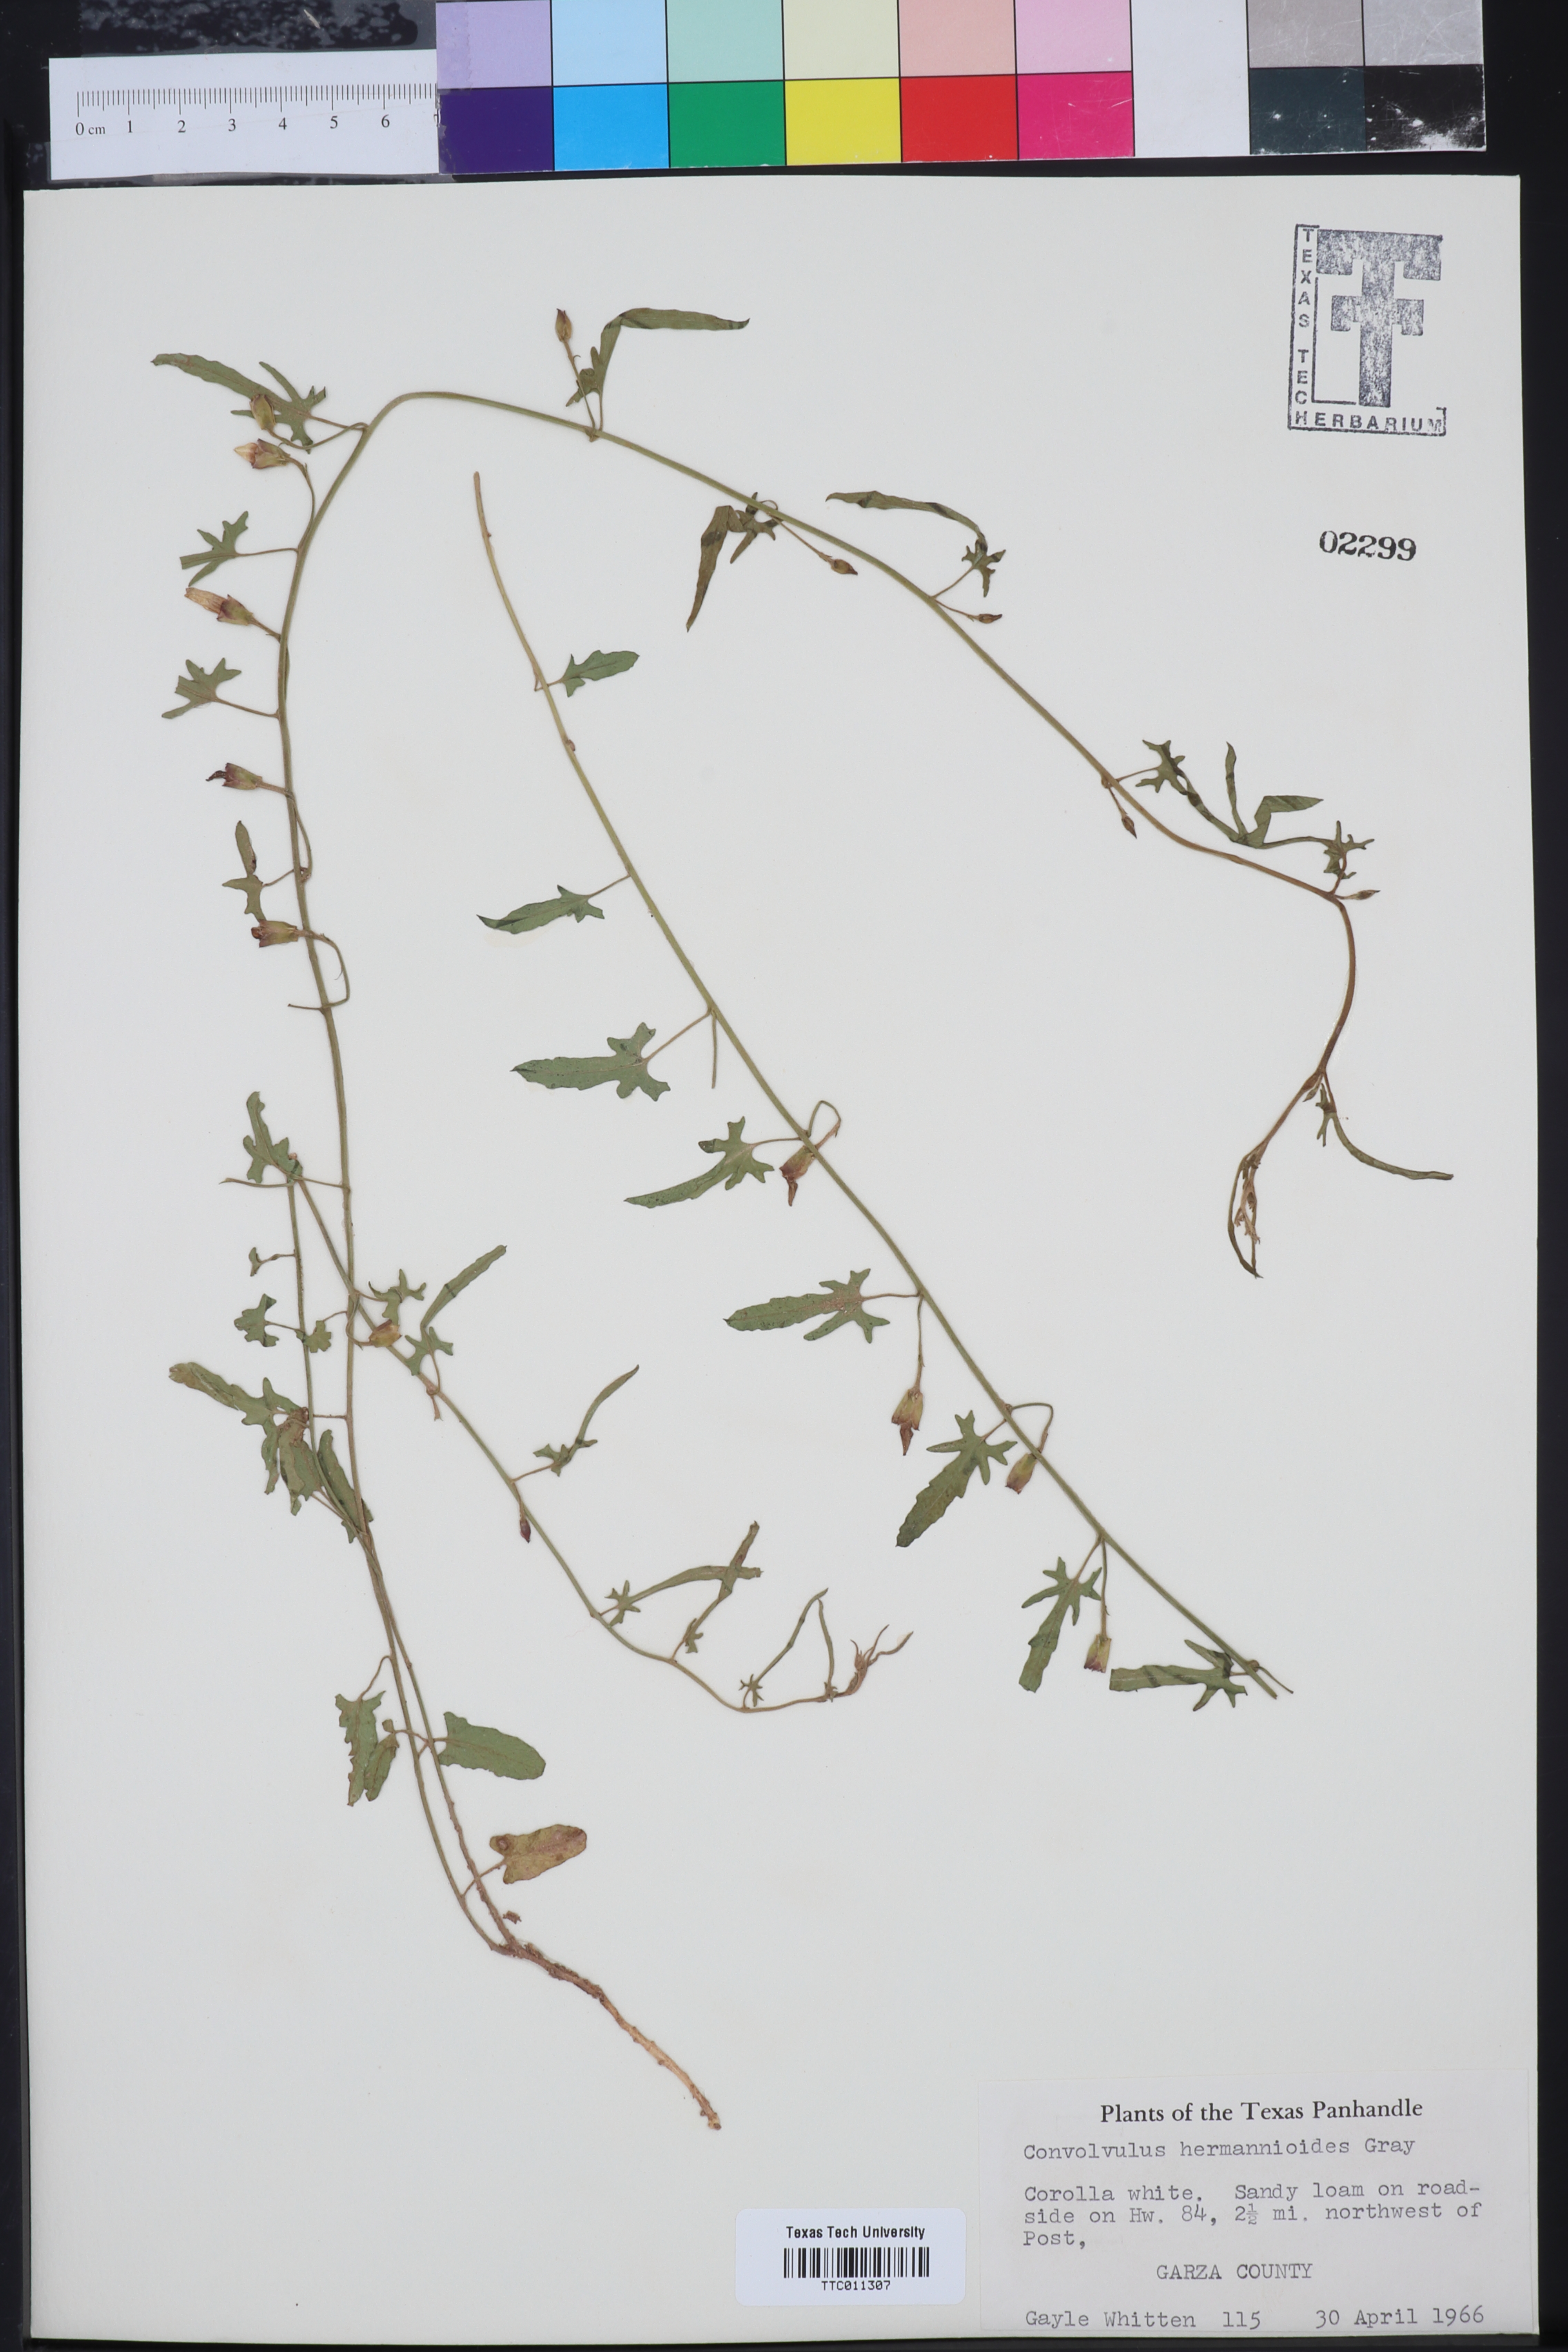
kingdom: Plantae
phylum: Tracheophyta
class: Magnoliopsida
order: Solanales
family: Convolvulaceae
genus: Convolvulus
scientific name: Convolvulus equitans
